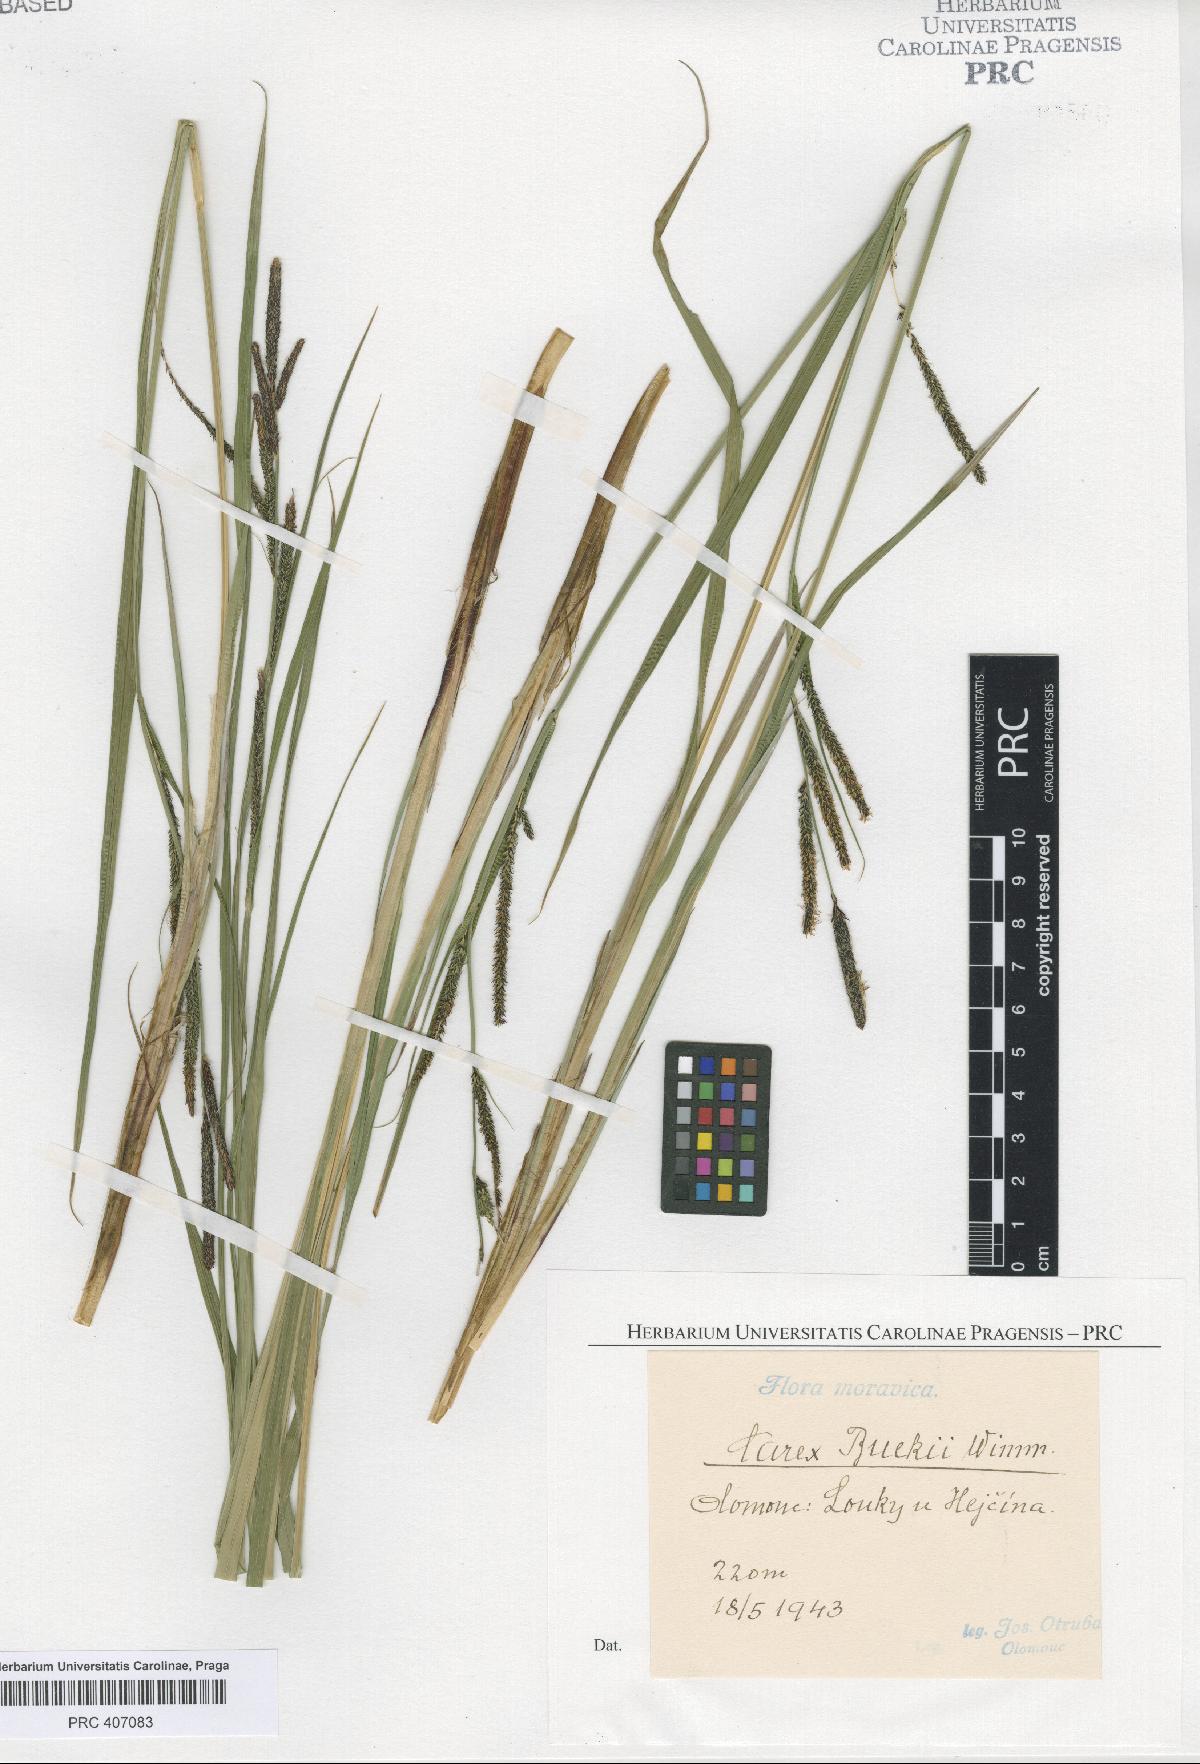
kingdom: Plantae
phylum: Tracheophyta
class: Liliopsida
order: Poales
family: Cyperaceae
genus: Carex
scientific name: Carex buekii
